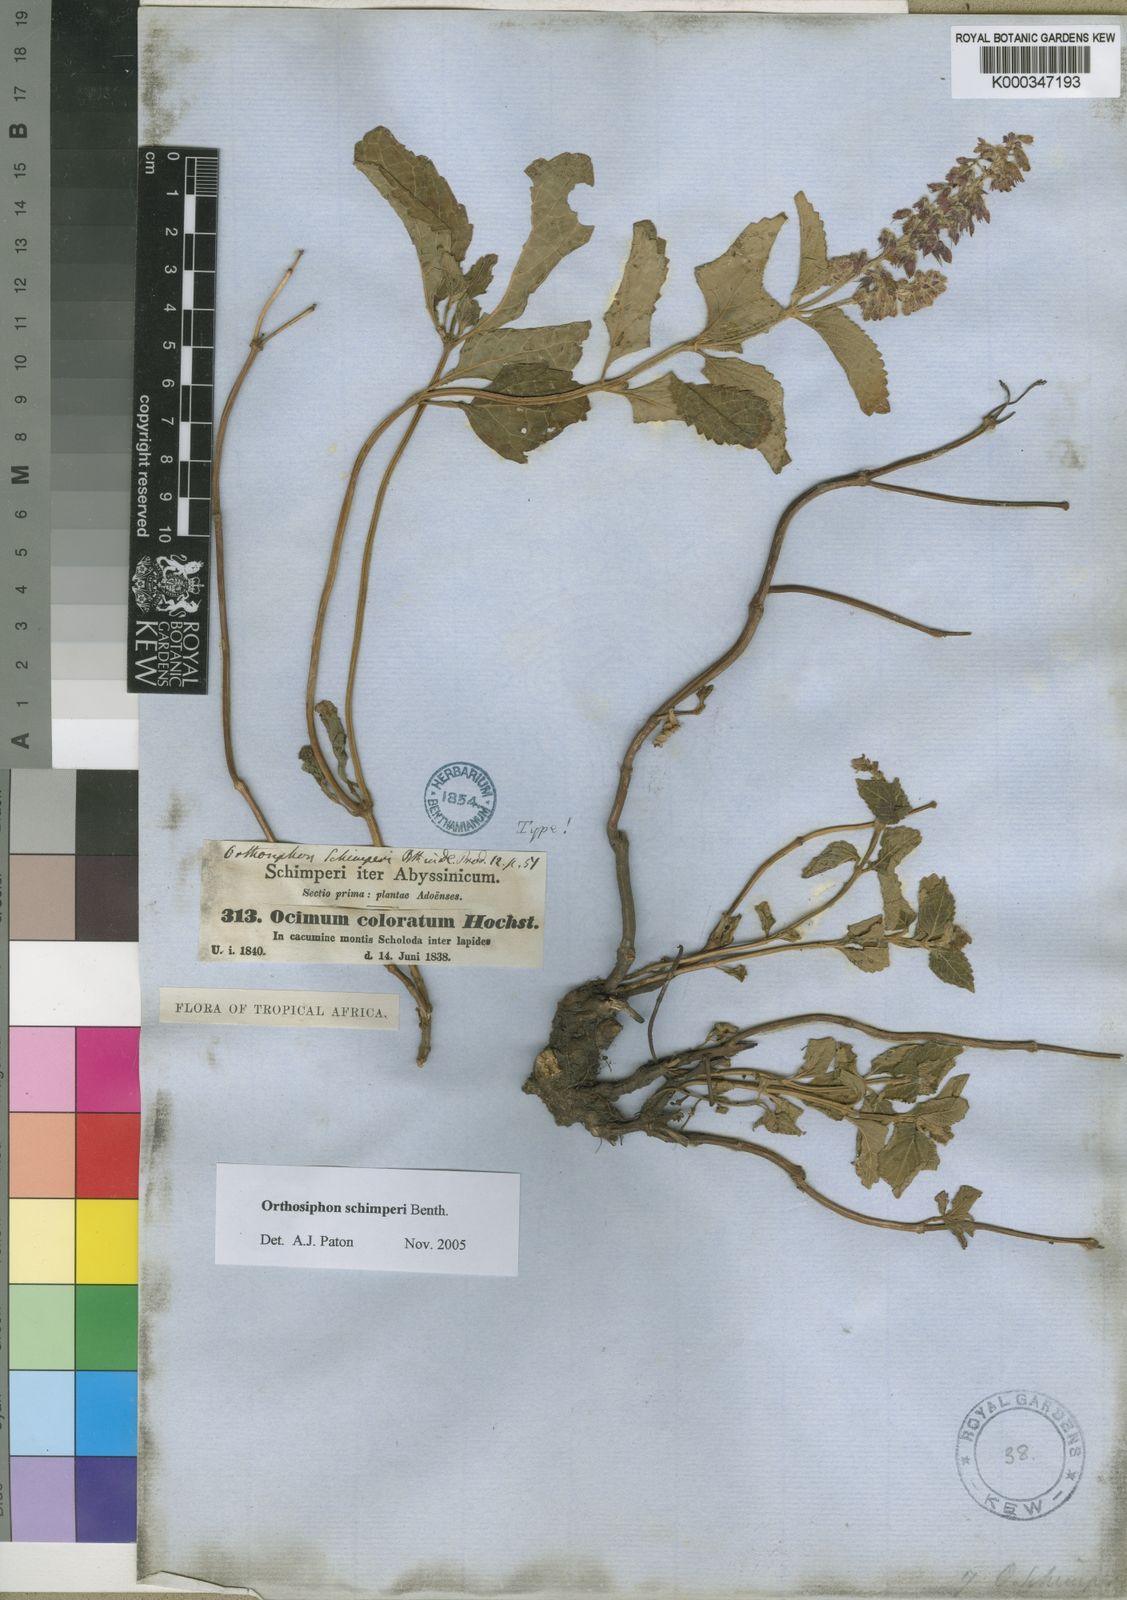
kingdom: Plantae
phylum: Tracheophyta
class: Magnoliopsida
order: Lamiales
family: Lamiaceae
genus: Orthosiphon
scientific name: Orthosiphon schimperi
